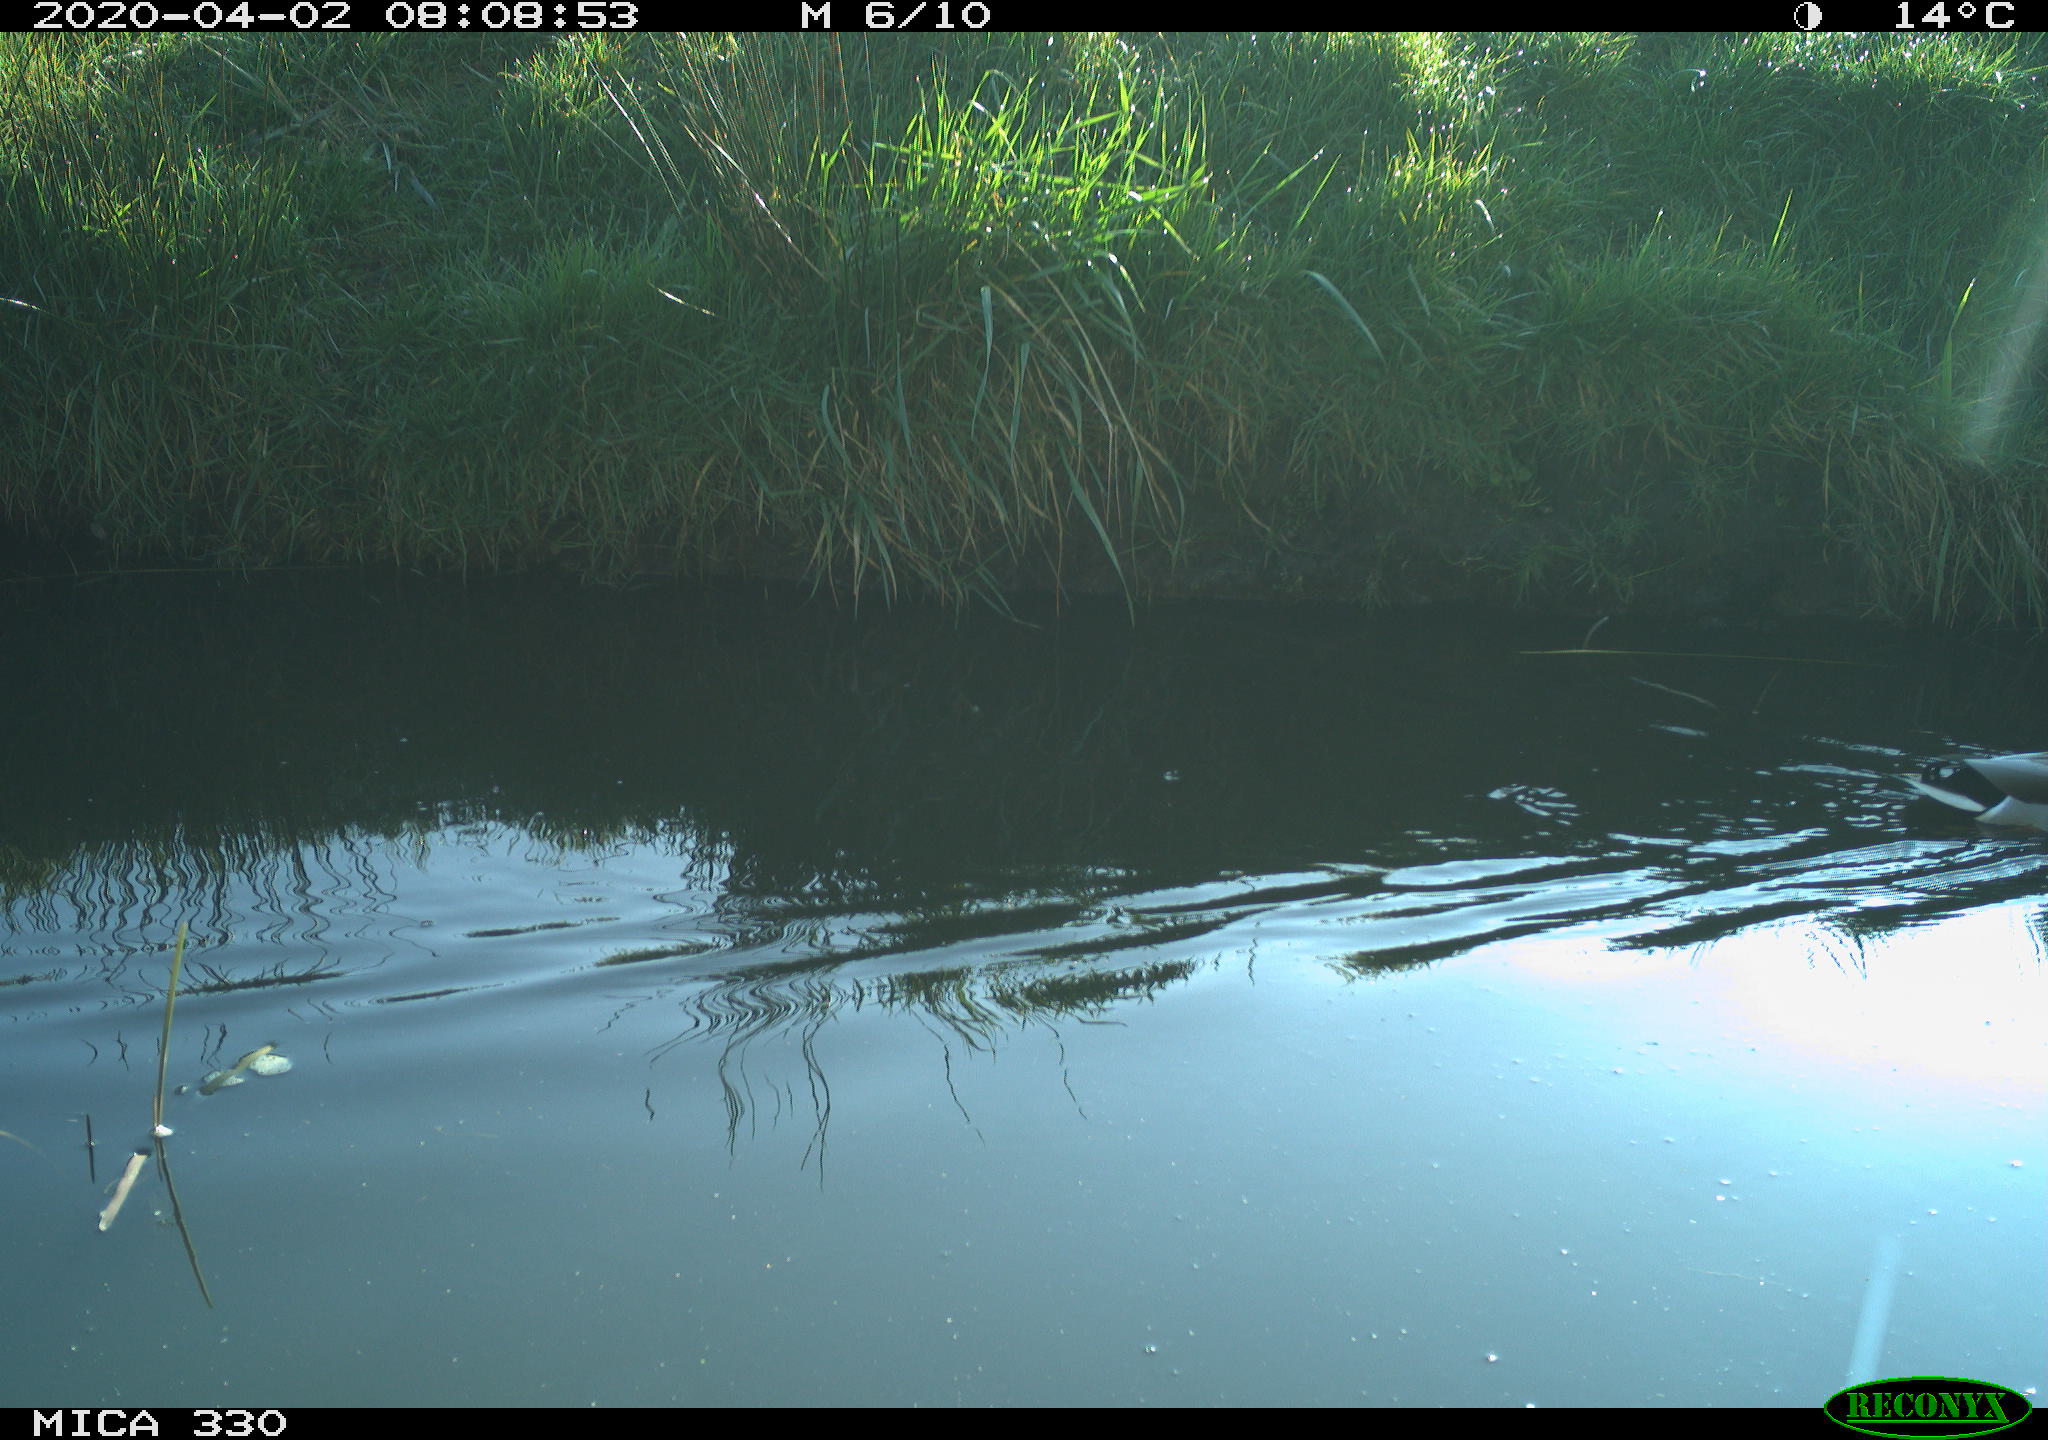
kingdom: Animalia
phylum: Chordata
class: Aves
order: Anseriformes
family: Anatidae
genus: Anas
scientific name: Anas platyrhynchos
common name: Mallard
